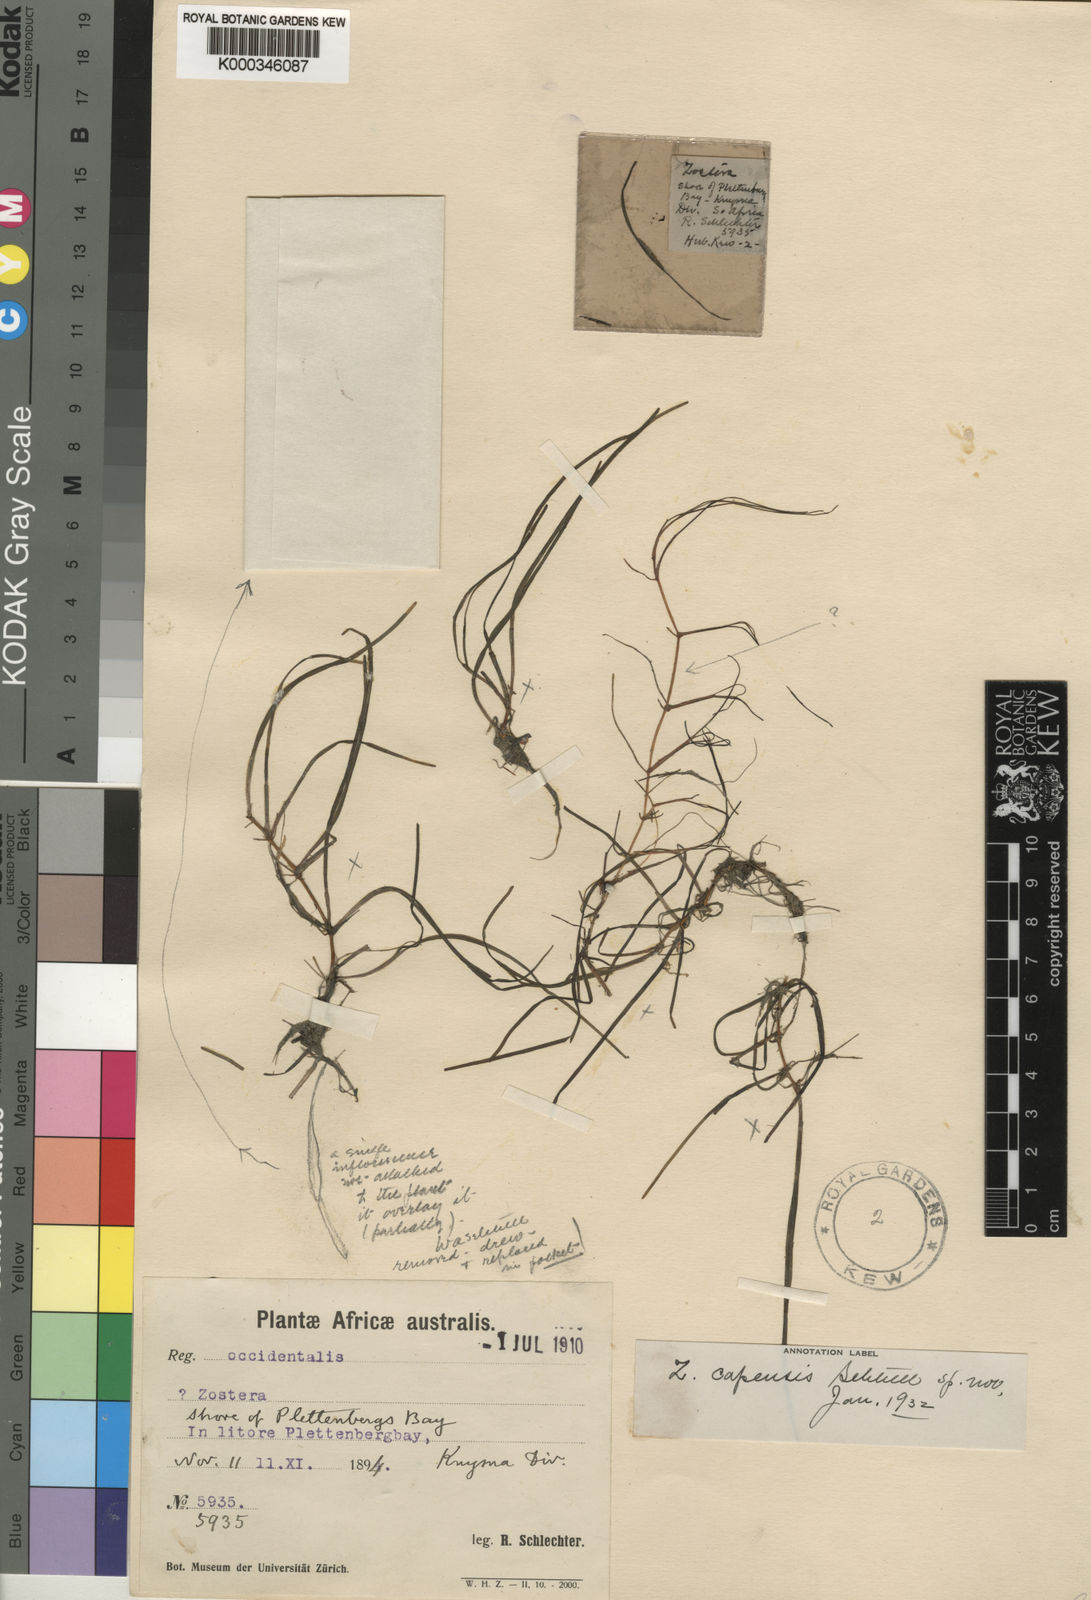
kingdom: Plantae
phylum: Tracheophyta
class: Liliopsida
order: Alismatales
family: Zosteraceae
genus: Zostera
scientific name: Zostera capensis
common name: Species code: zp
